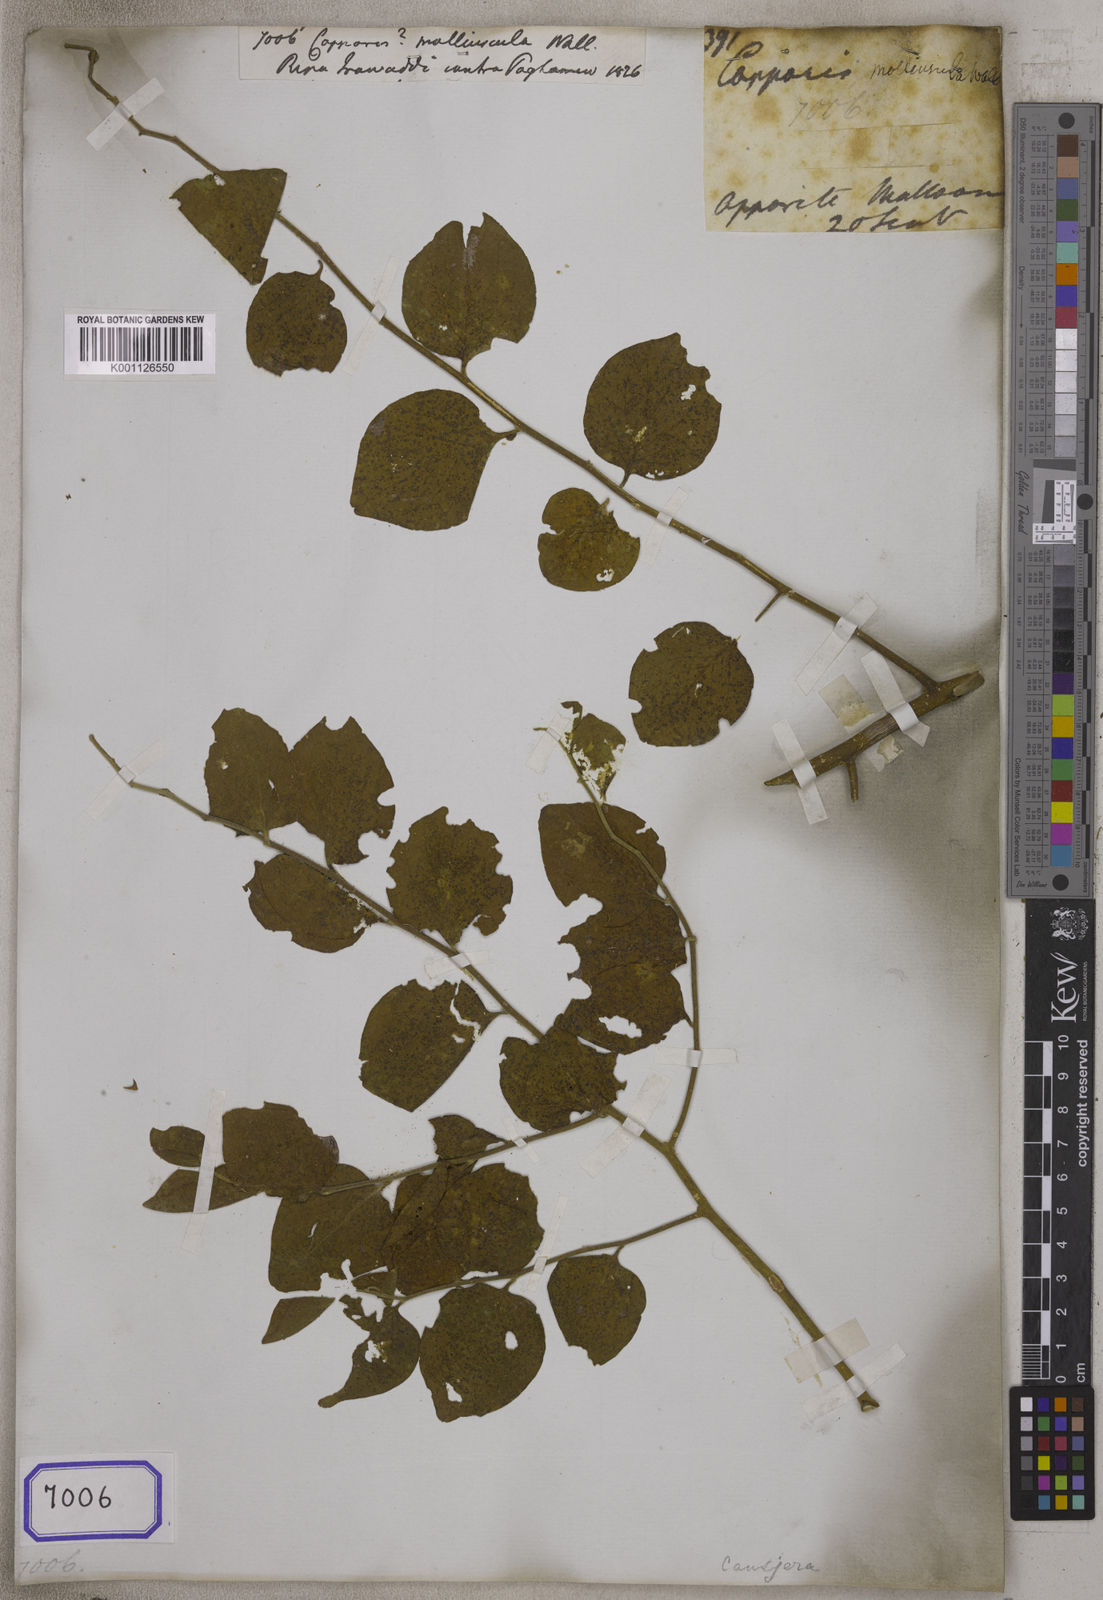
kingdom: Plantae
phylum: Tracheophyta
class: Magnoliopsida
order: Brassicales
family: Capparaceae
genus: Capparis
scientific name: Capparis
